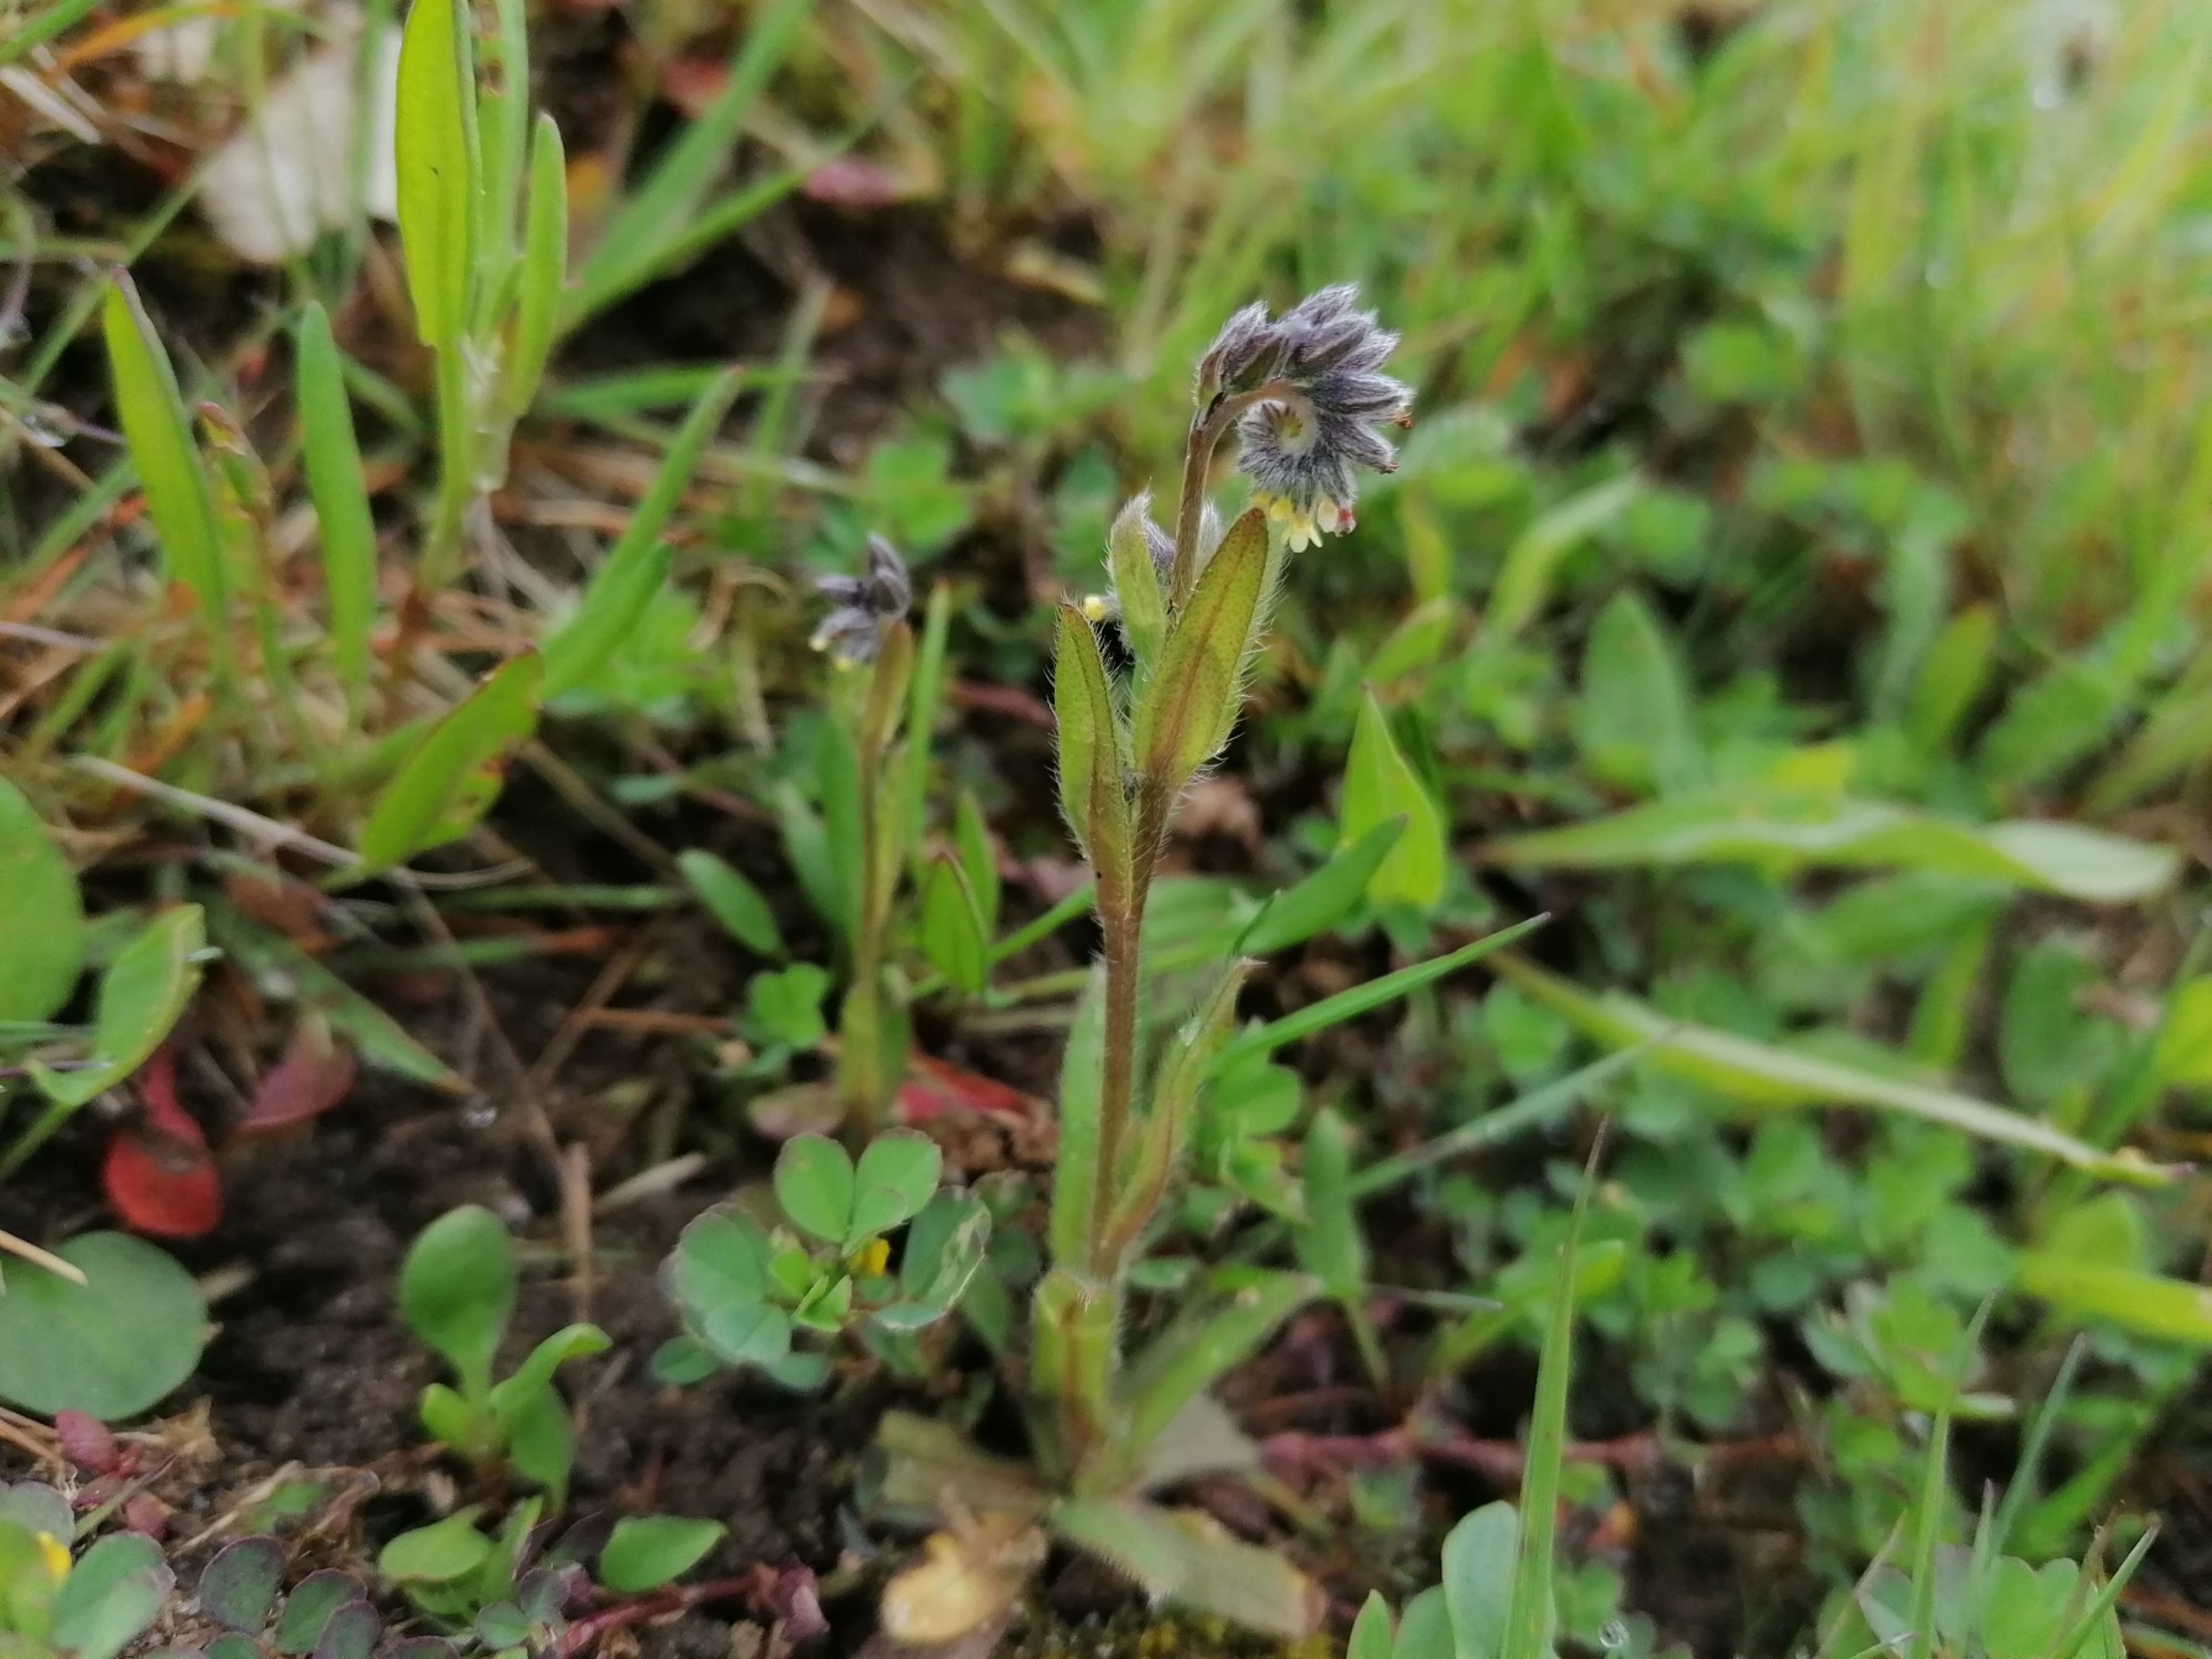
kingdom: Plantae
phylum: Tracheophyta
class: Magnoliopsida
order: Boraginales
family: Boraginaceae
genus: Myosotis
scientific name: Myosotis discolor
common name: Forskelligfarvet forglemmigej
